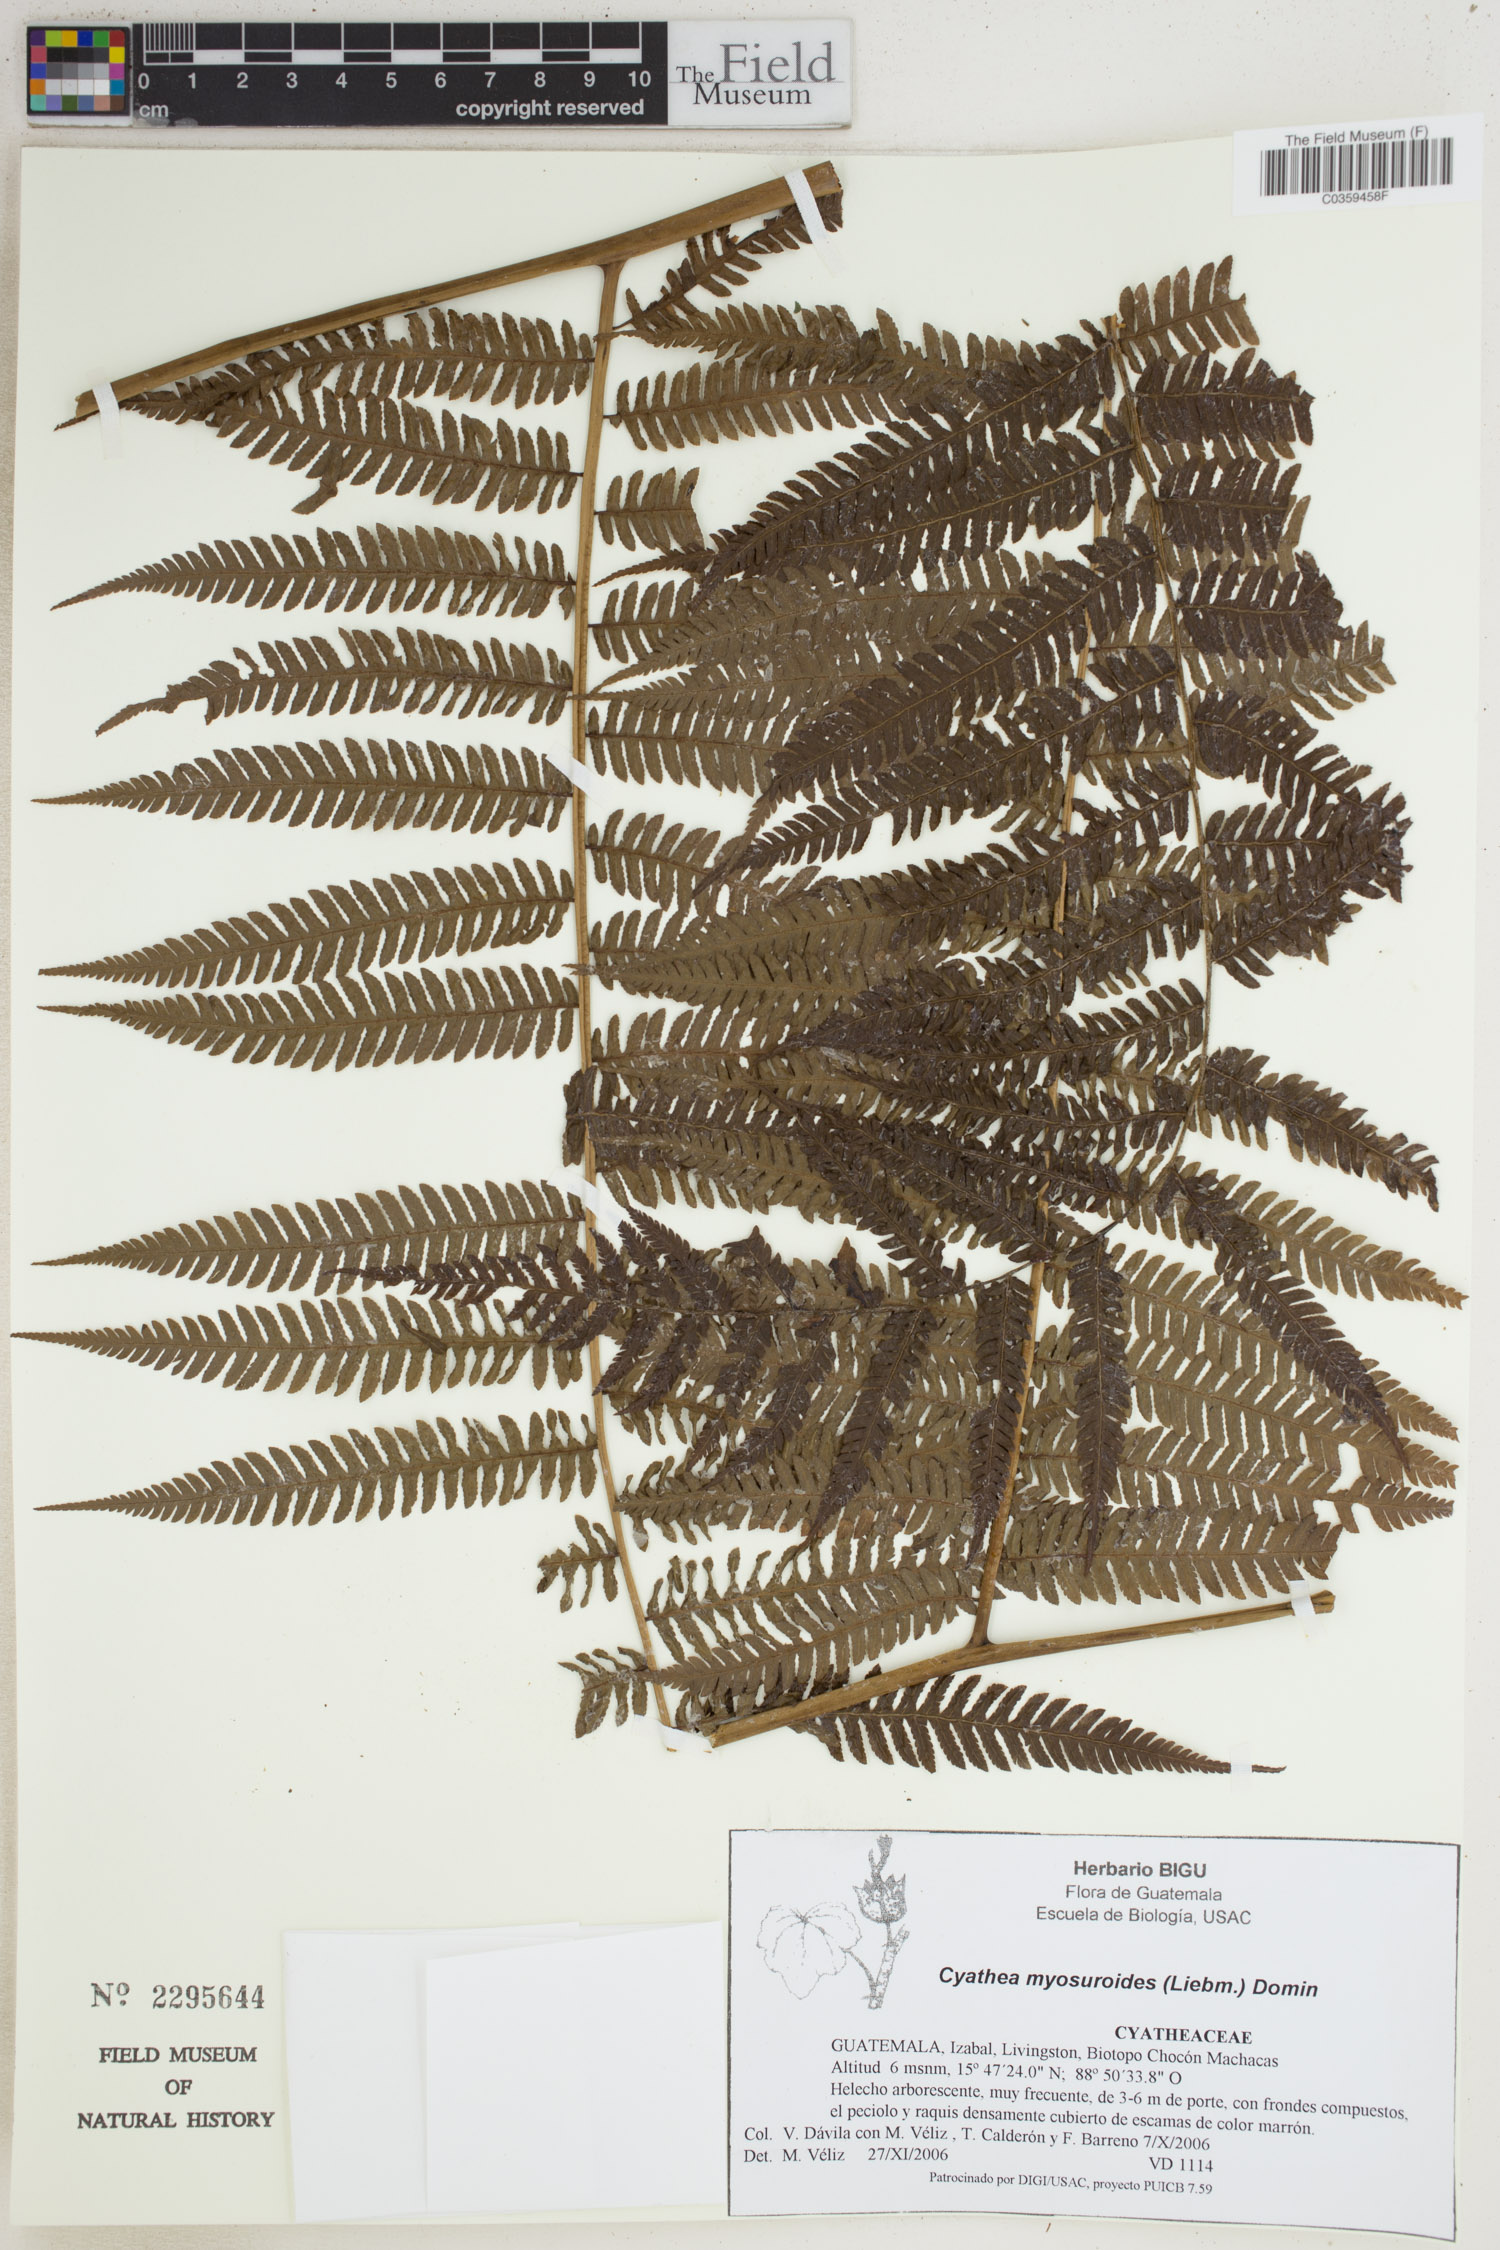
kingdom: Plantae
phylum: Tracheophyta
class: Polypodiopsida
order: Cyatheales
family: Cyatheaceae
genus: Sphaeropteris
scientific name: Sphaeropteris myosuroides
